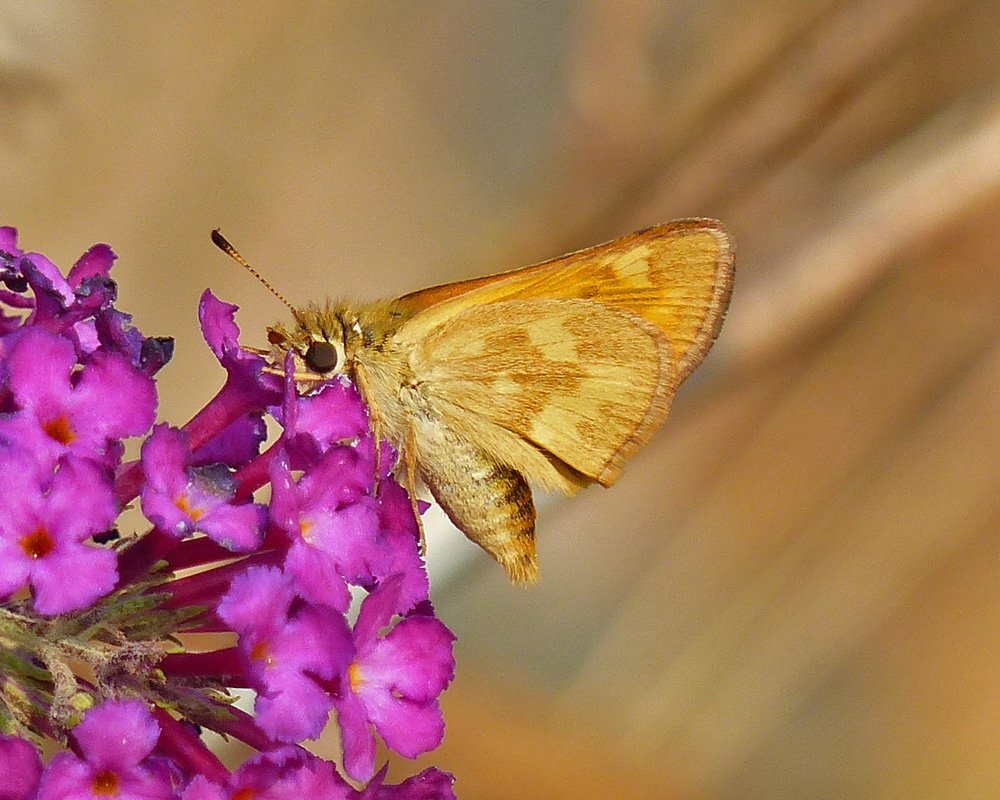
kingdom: Animalia
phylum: Arthropoda
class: Insecta
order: Lepidoptera
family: Hesperiidae
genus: Ochlodes
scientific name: Ochlodes sylvanoides
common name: Woodland Skipper
